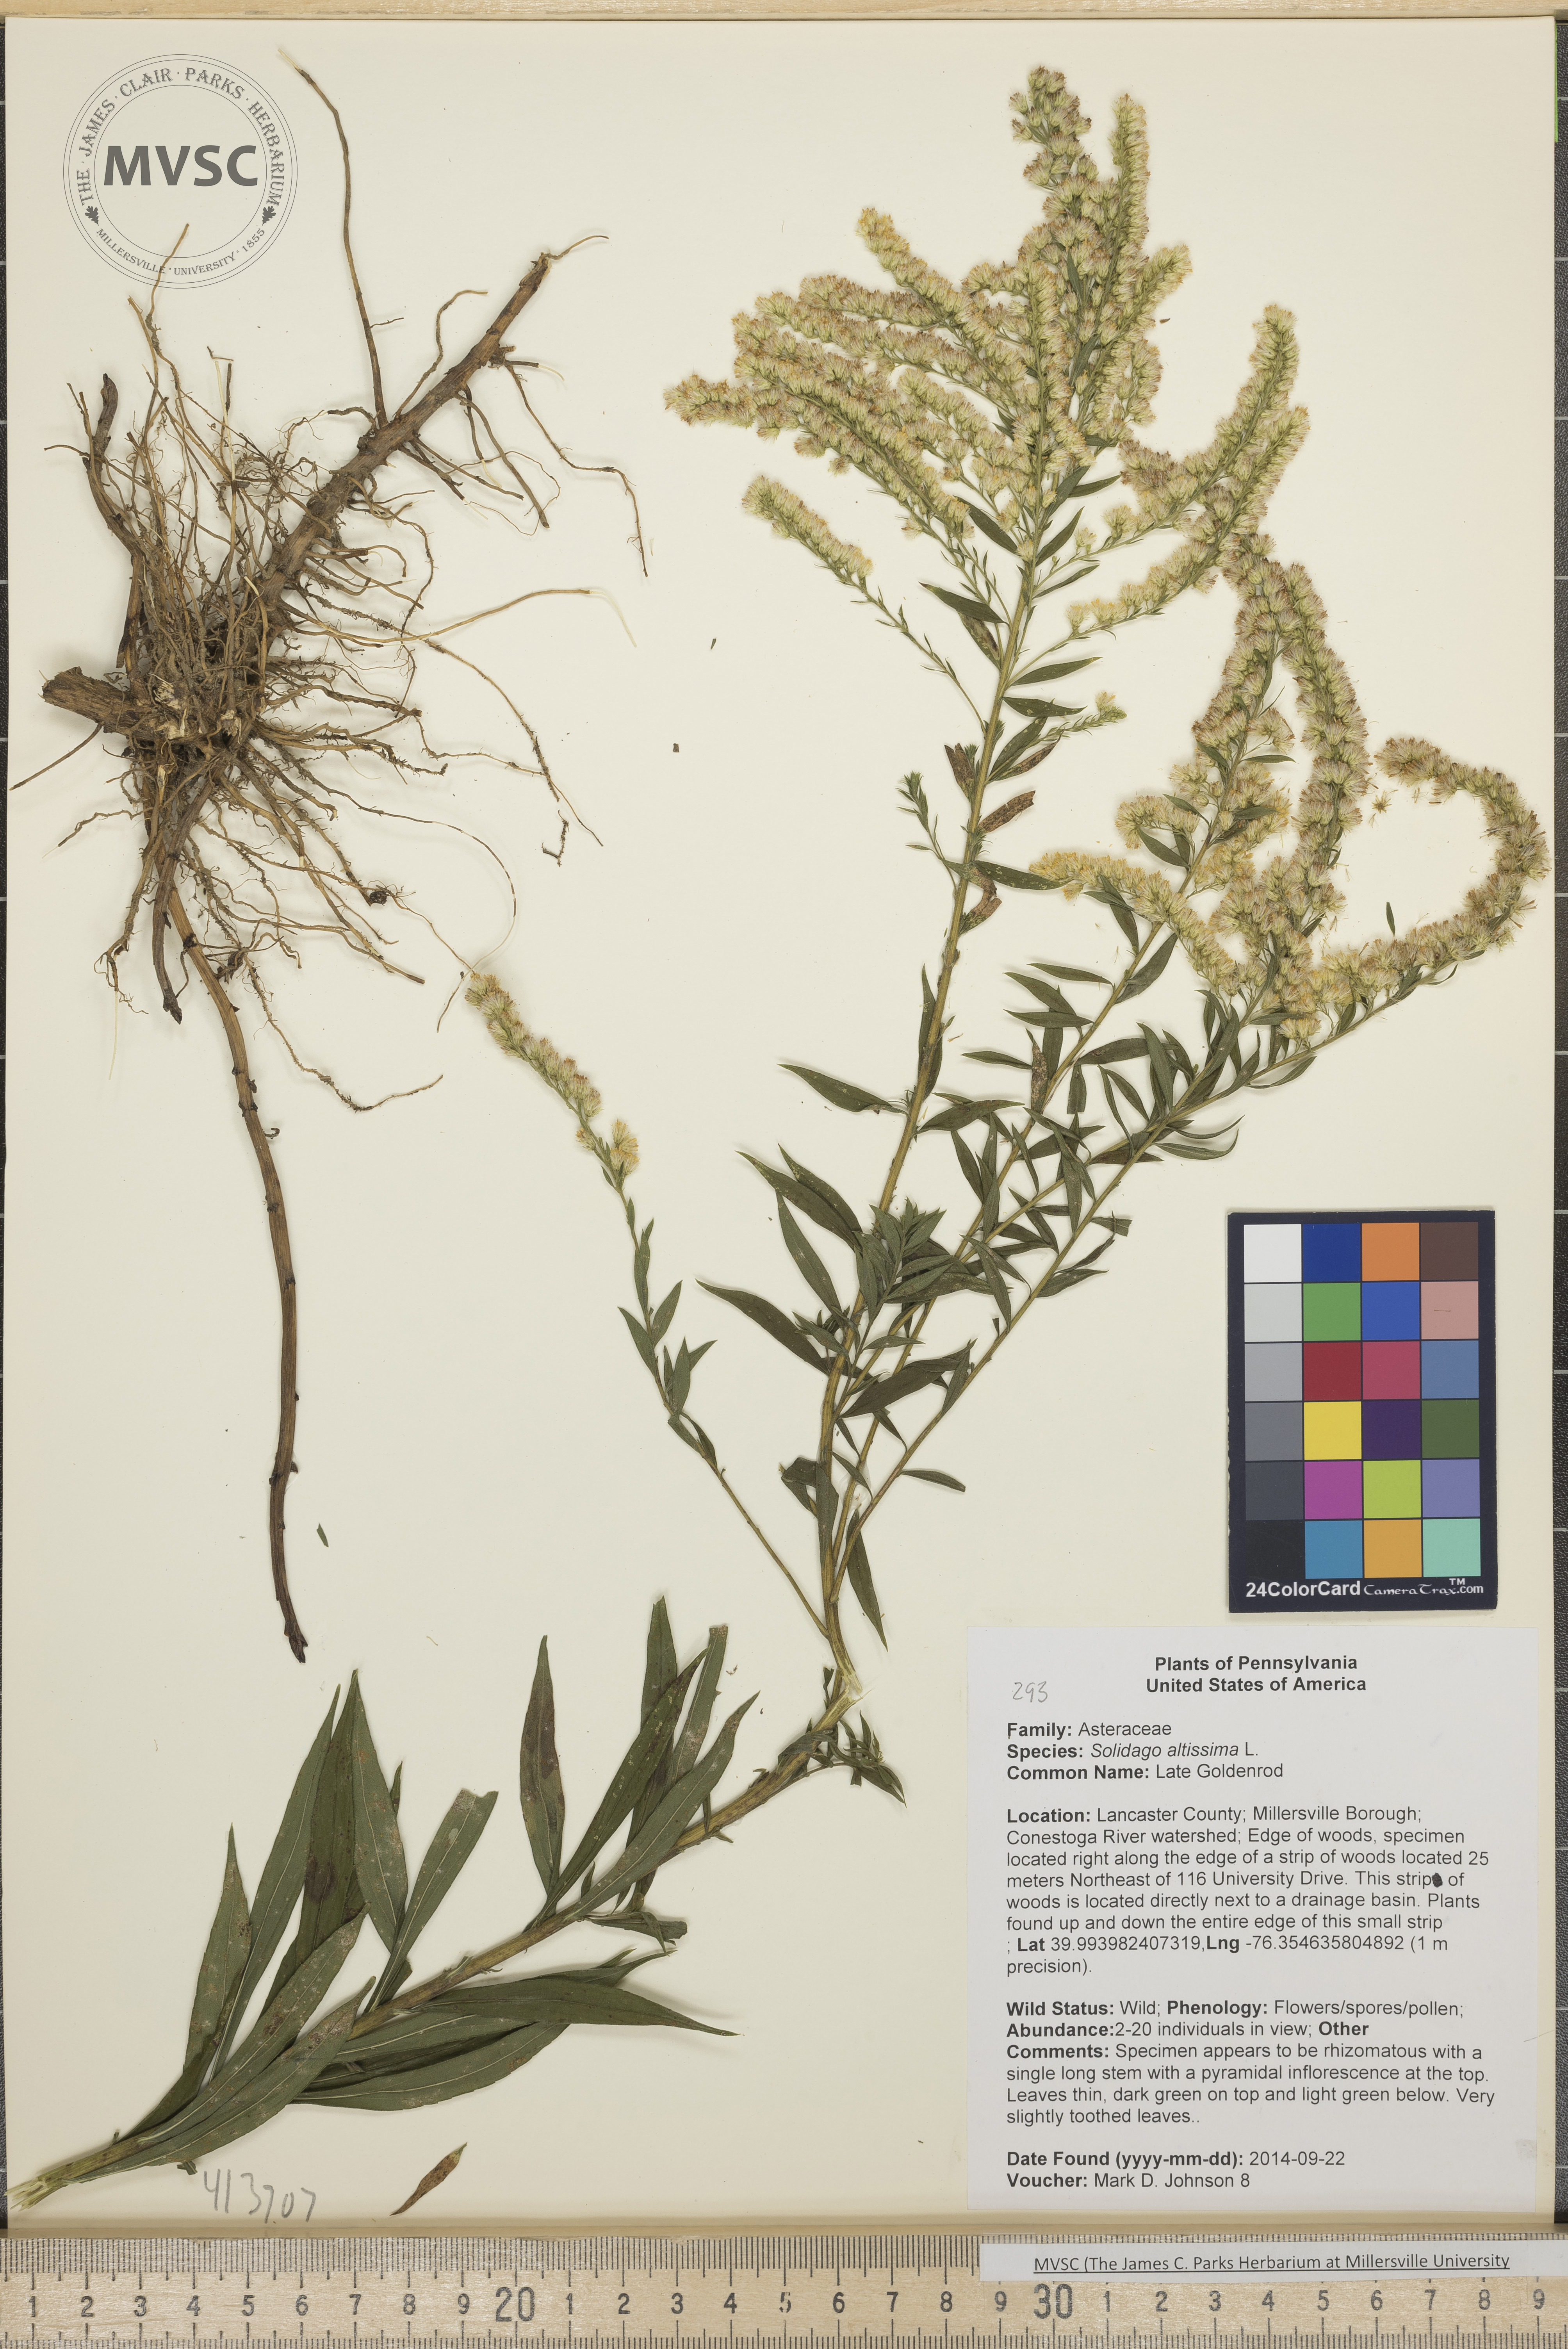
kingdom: Plantae
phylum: Tracheophyta
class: Magnoliopsida
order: Asterales
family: Asteraceae
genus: Solidago
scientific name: Solidago altissima
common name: Late Goldenrod
